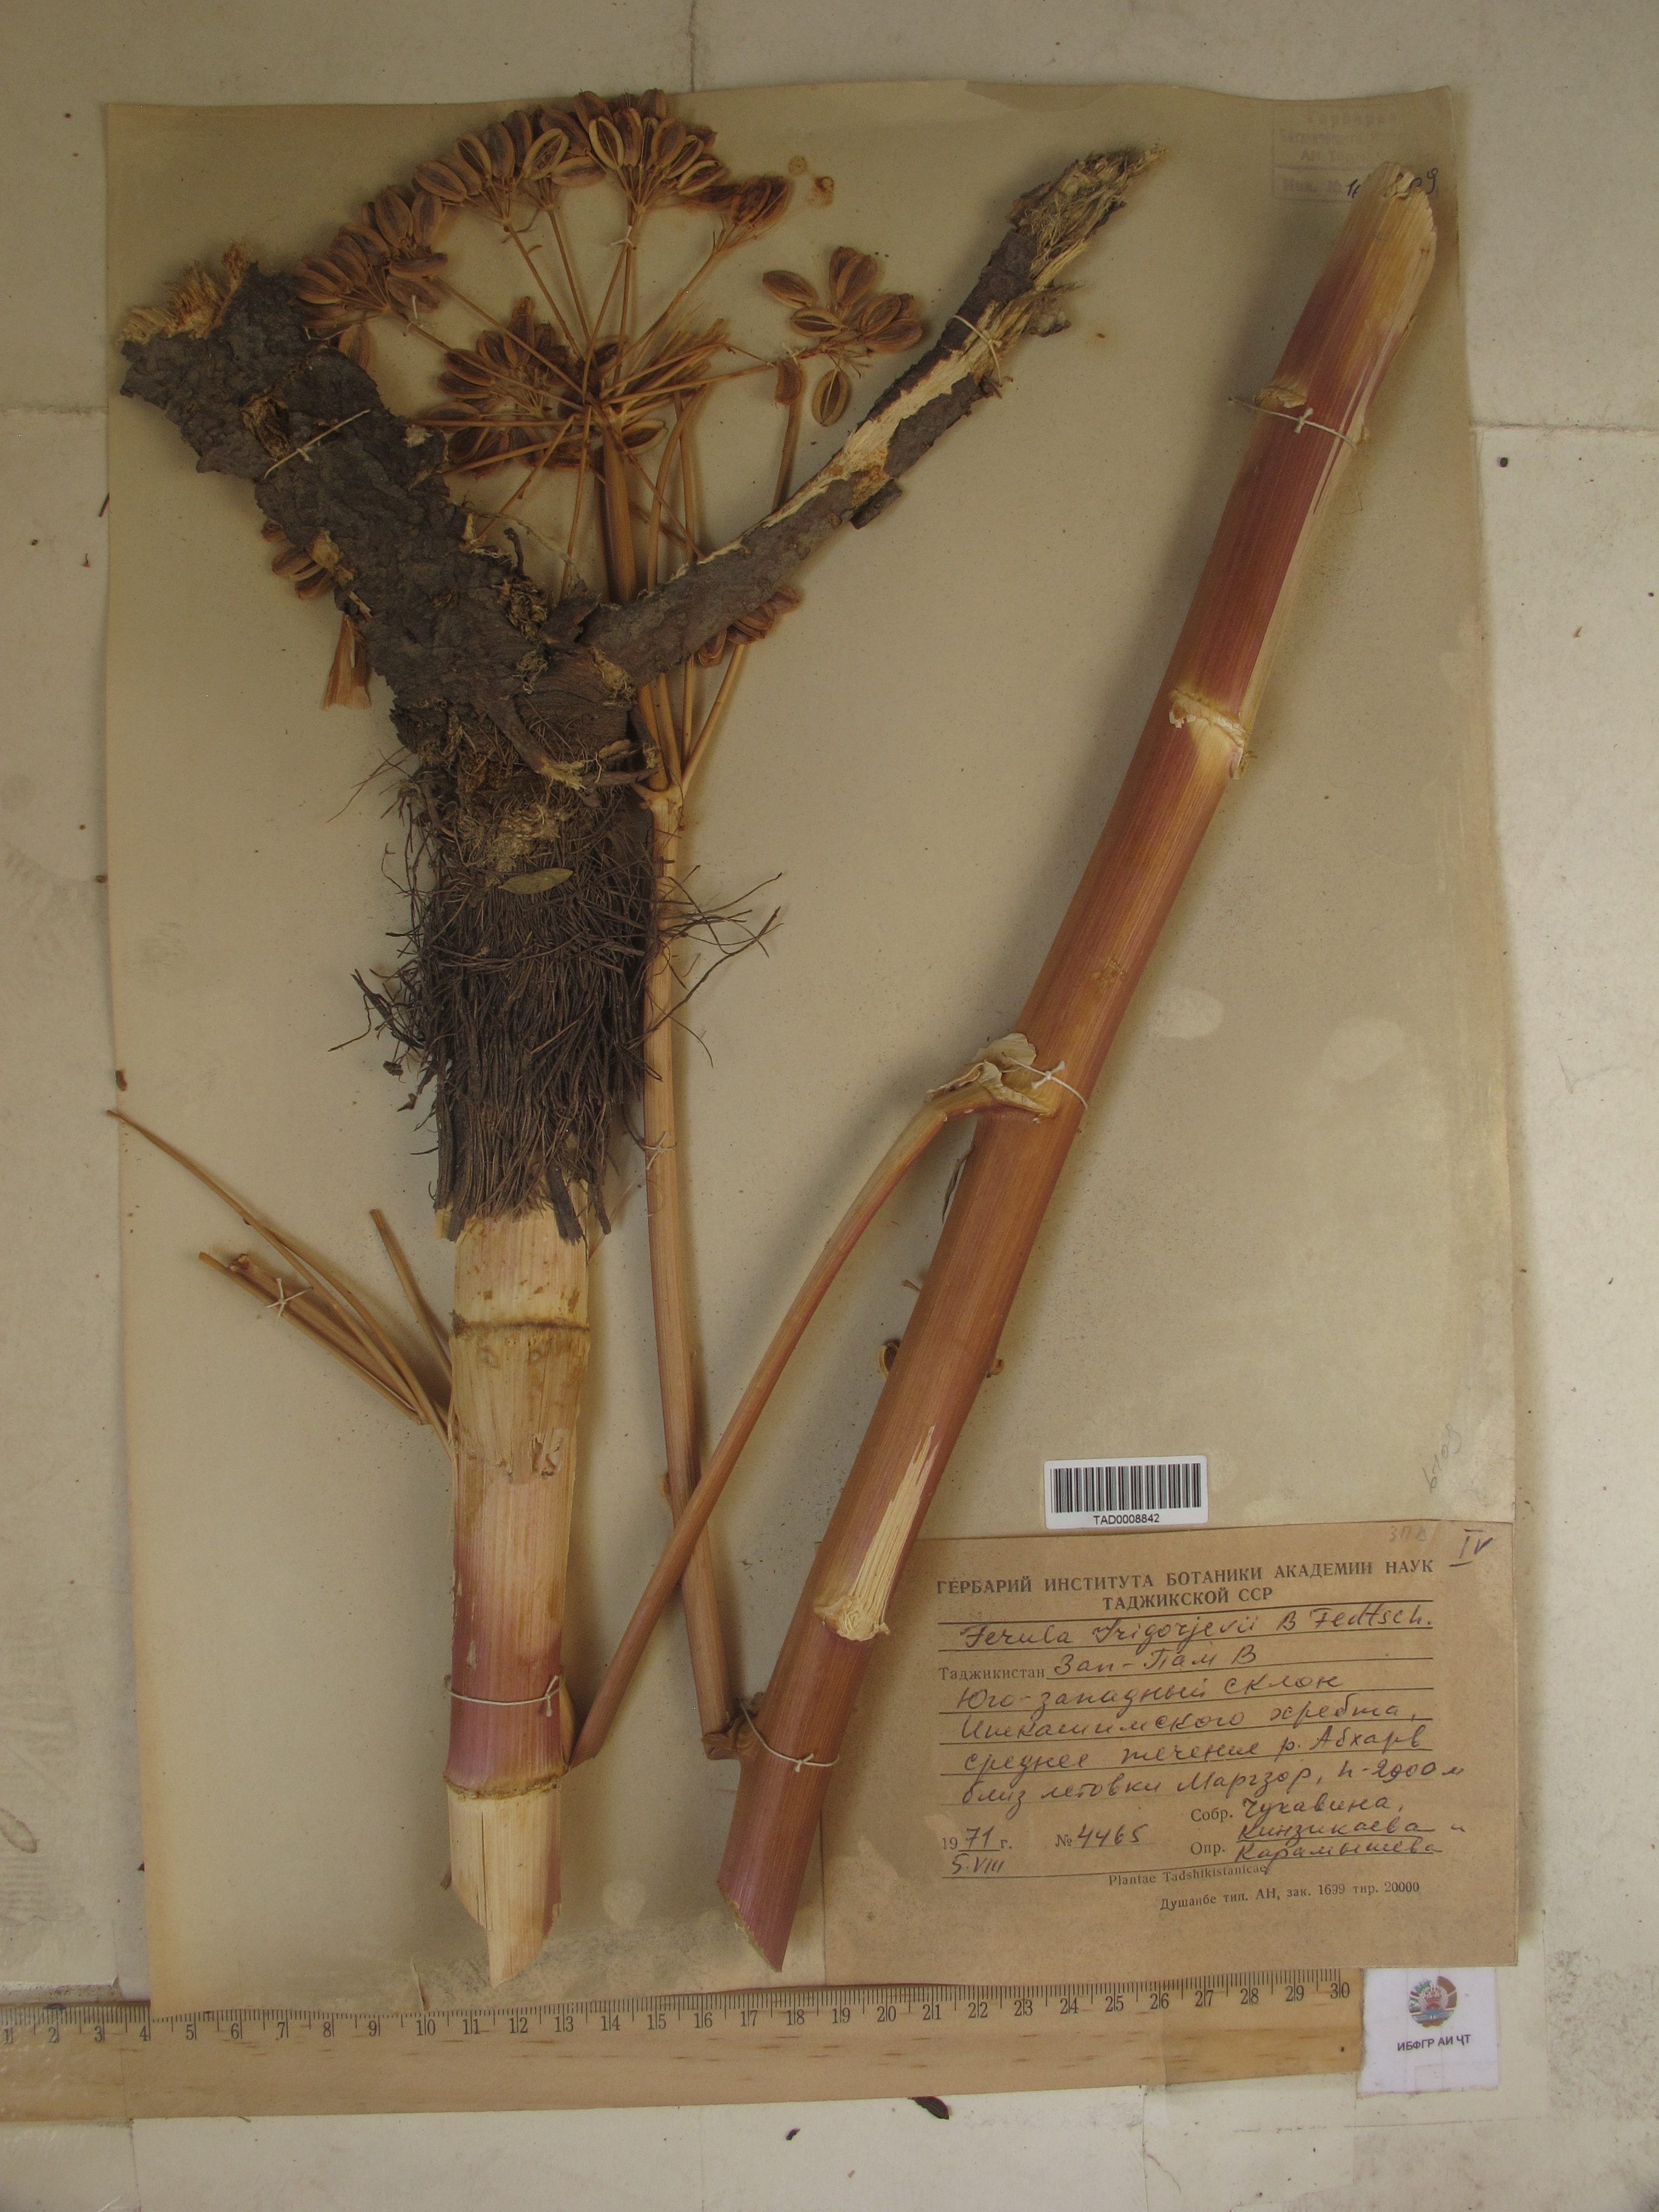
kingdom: Plantae
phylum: Tracheophyta
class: Magnoliopsida
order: Apiales
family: Apiaceae
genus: Ferula
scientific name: Ferula grigoriewii
